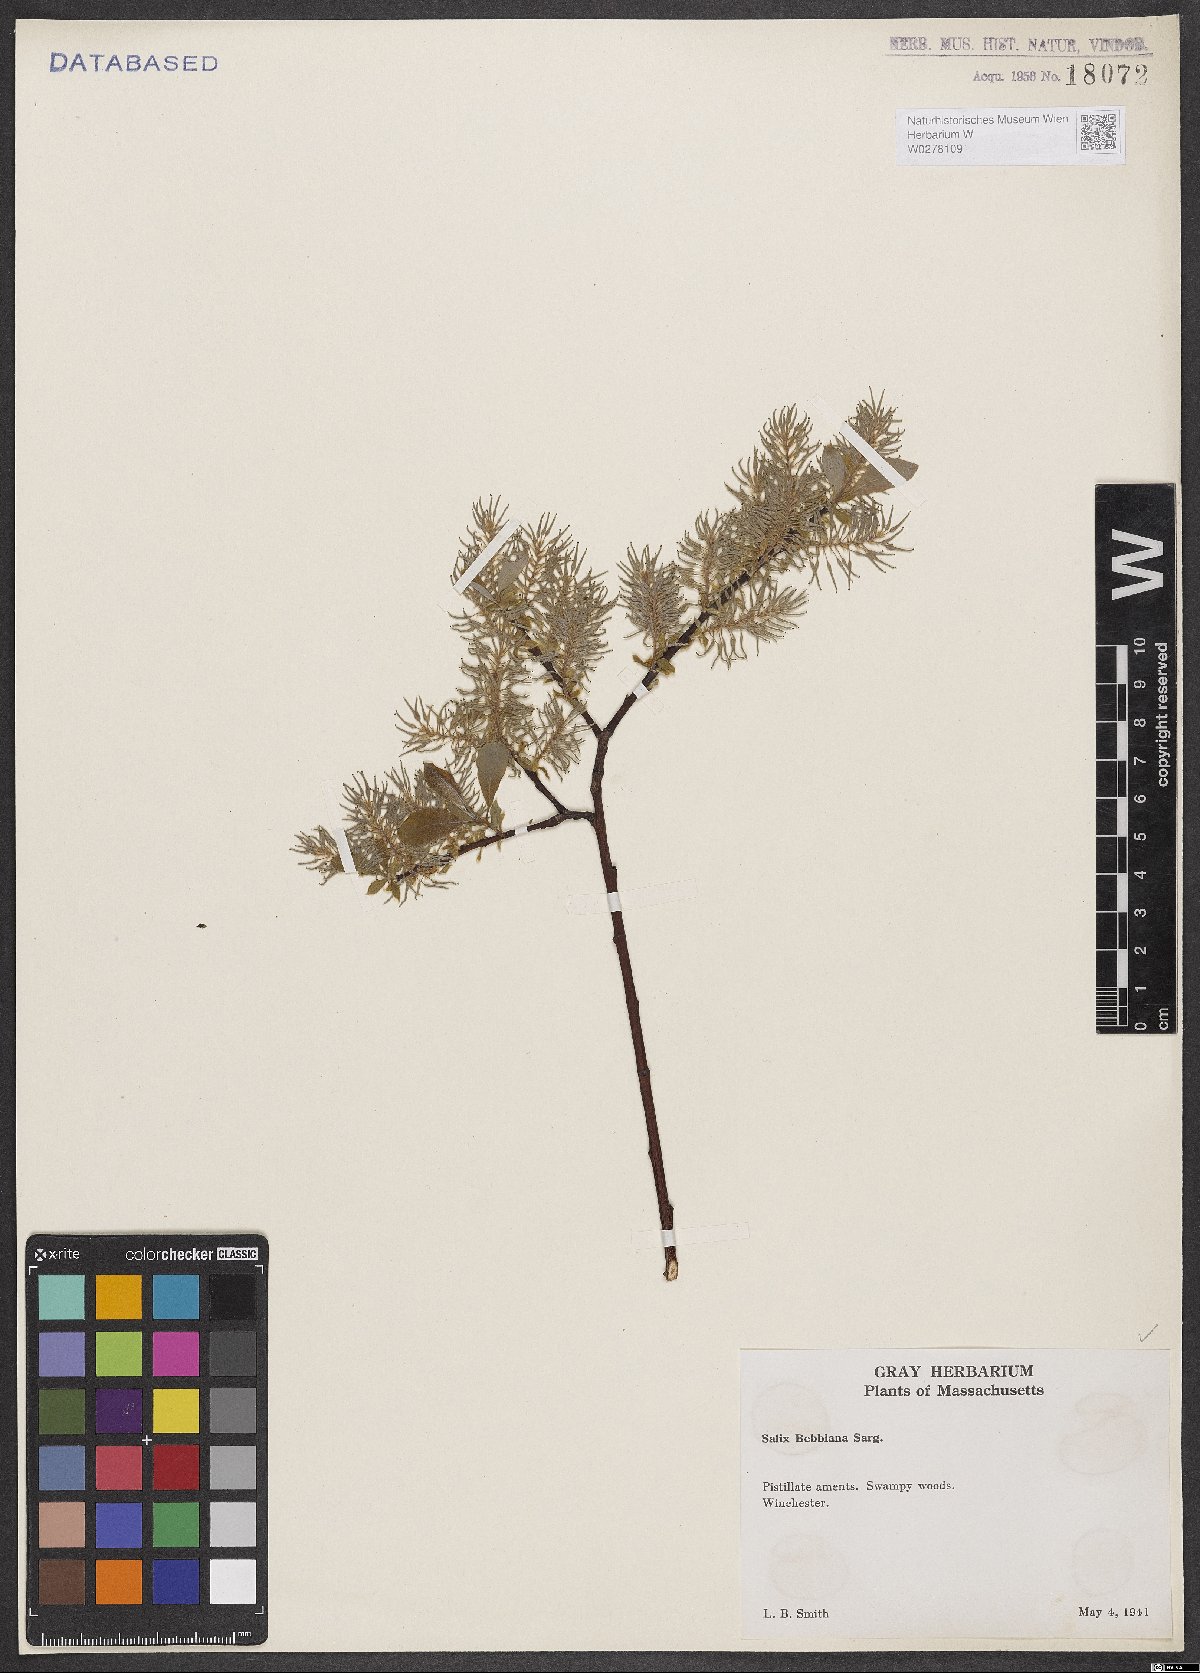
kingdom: Plantae
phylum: Tracheophyta
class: Magnoliopsida
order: Malpighiales
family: Salicaceae
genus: Salix
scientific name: Salix bebbiana
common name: Bebb's willow
